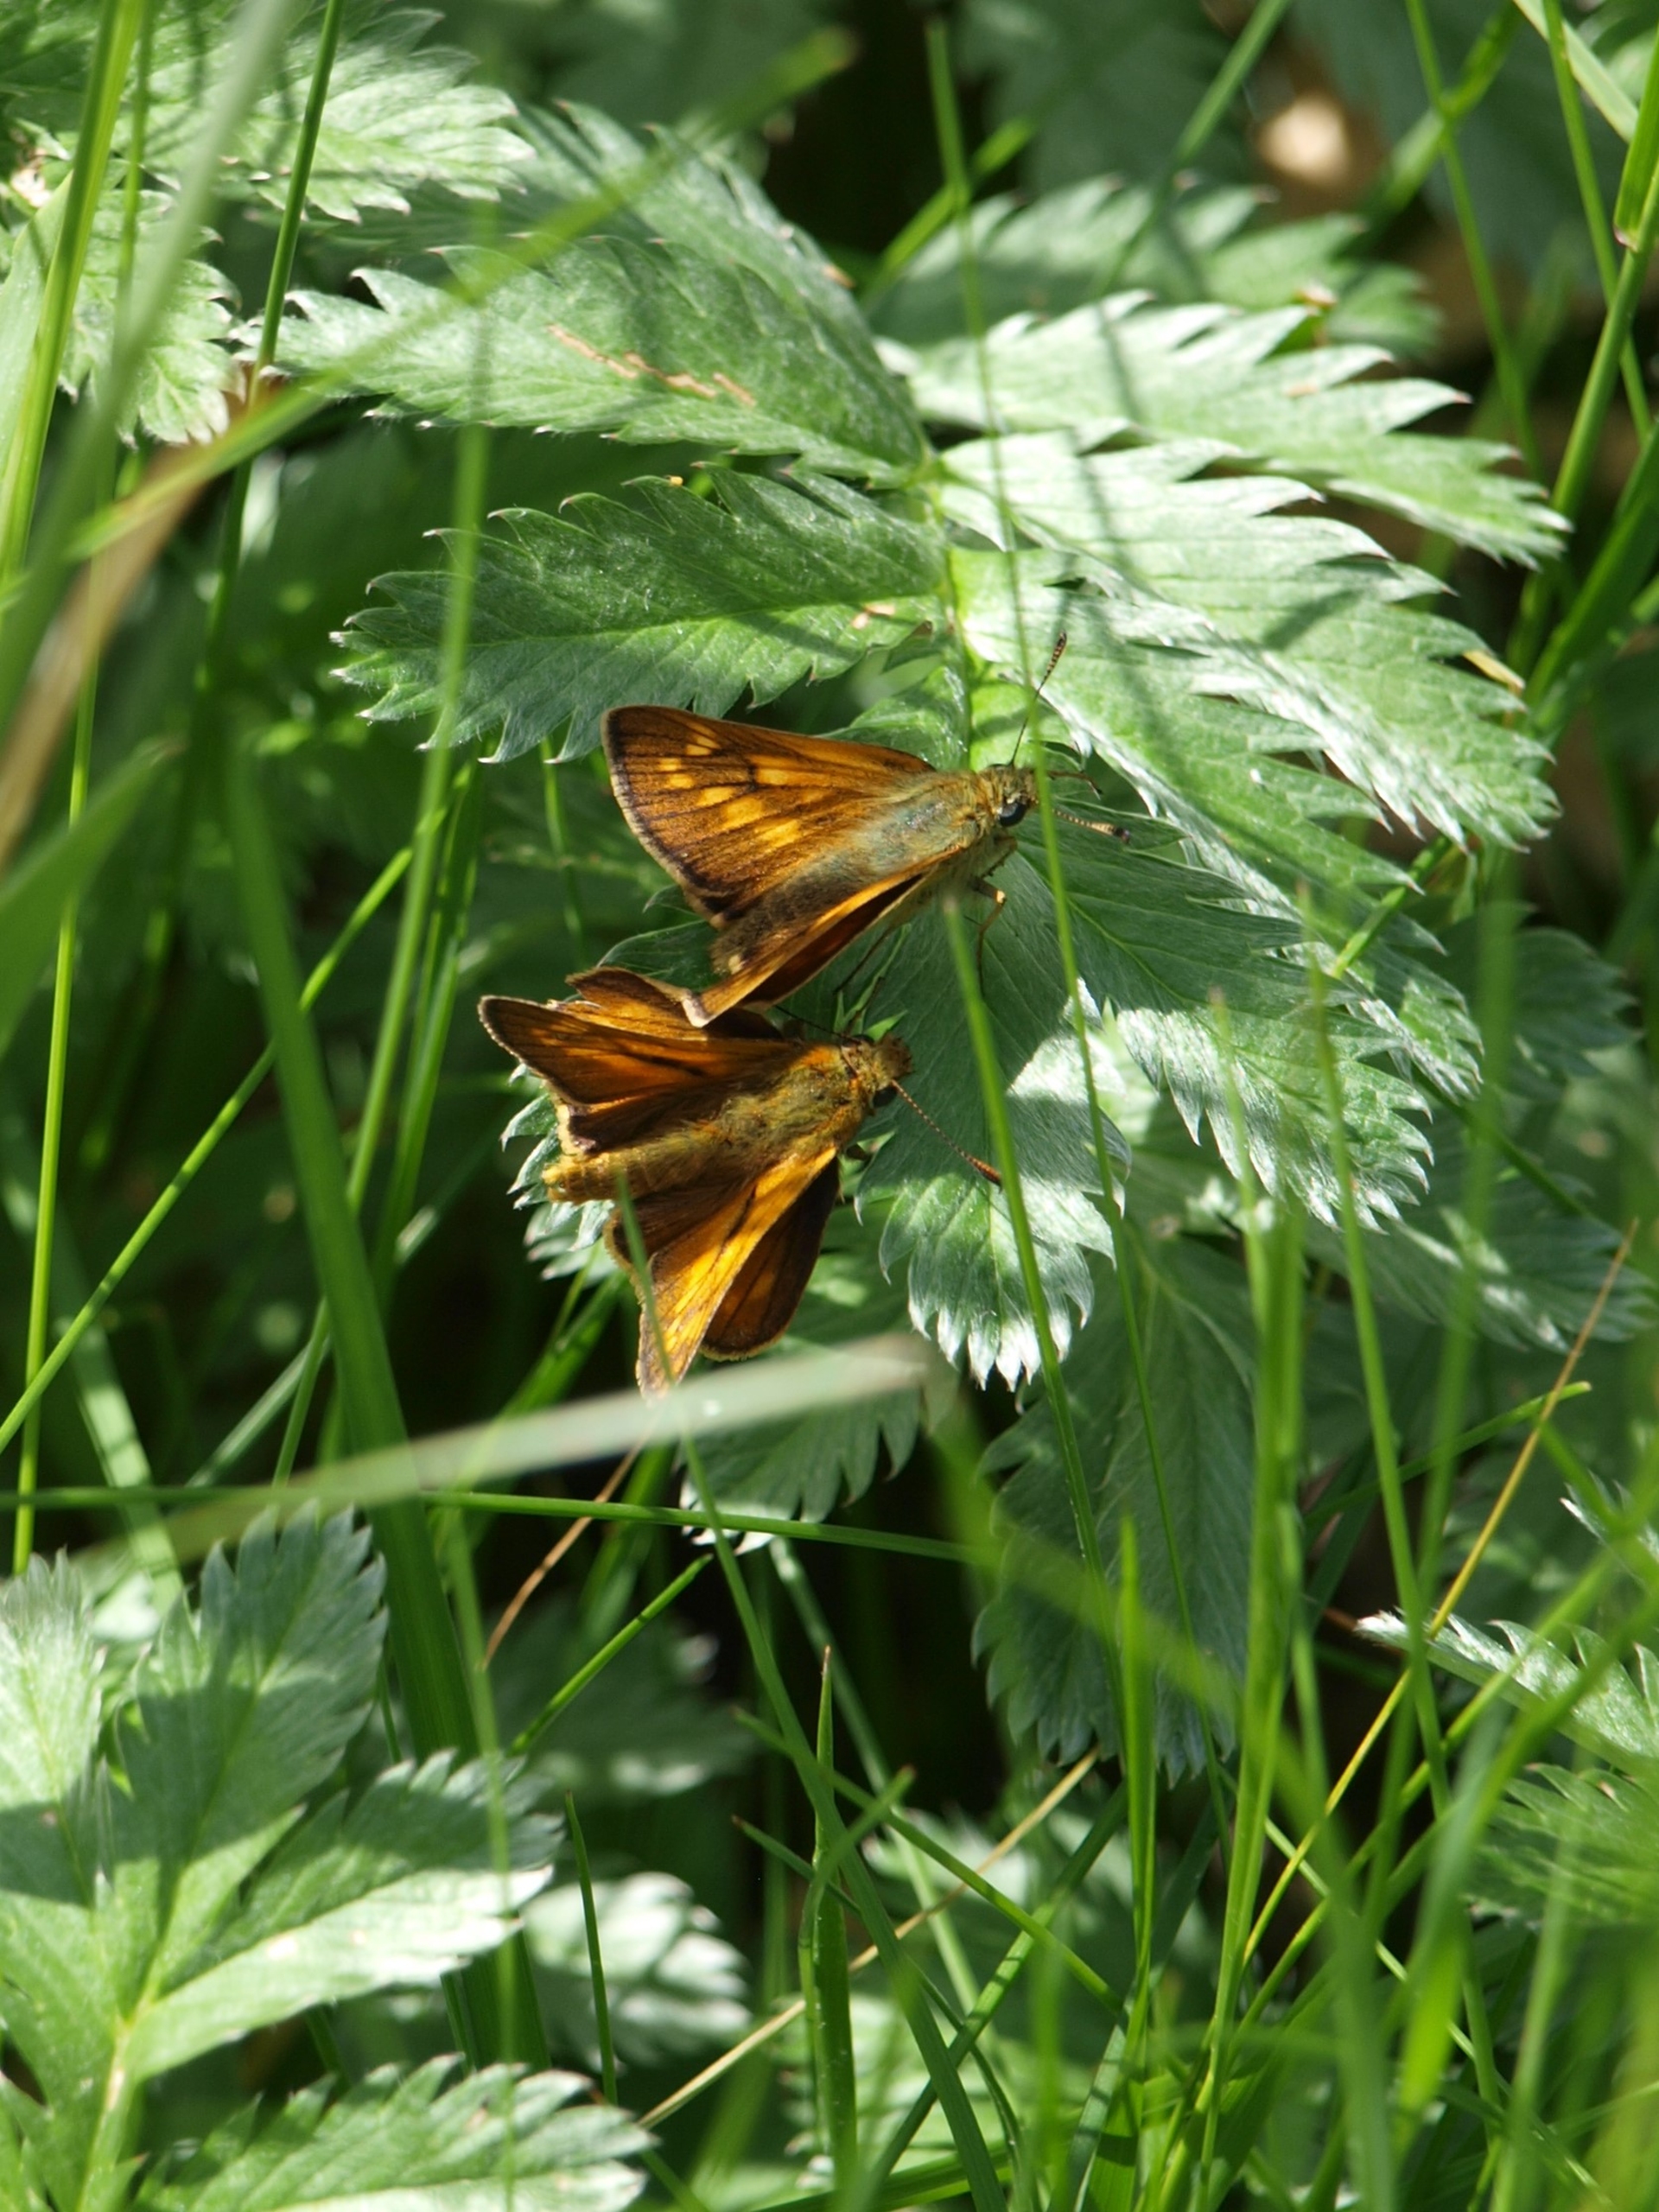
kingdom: Animalia
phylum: Arthropoda
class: Insecta
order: Lepidoptera
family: Hesperiidae
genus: Ochlodes
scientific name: Ochlodes venata
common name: Stor bredpande
